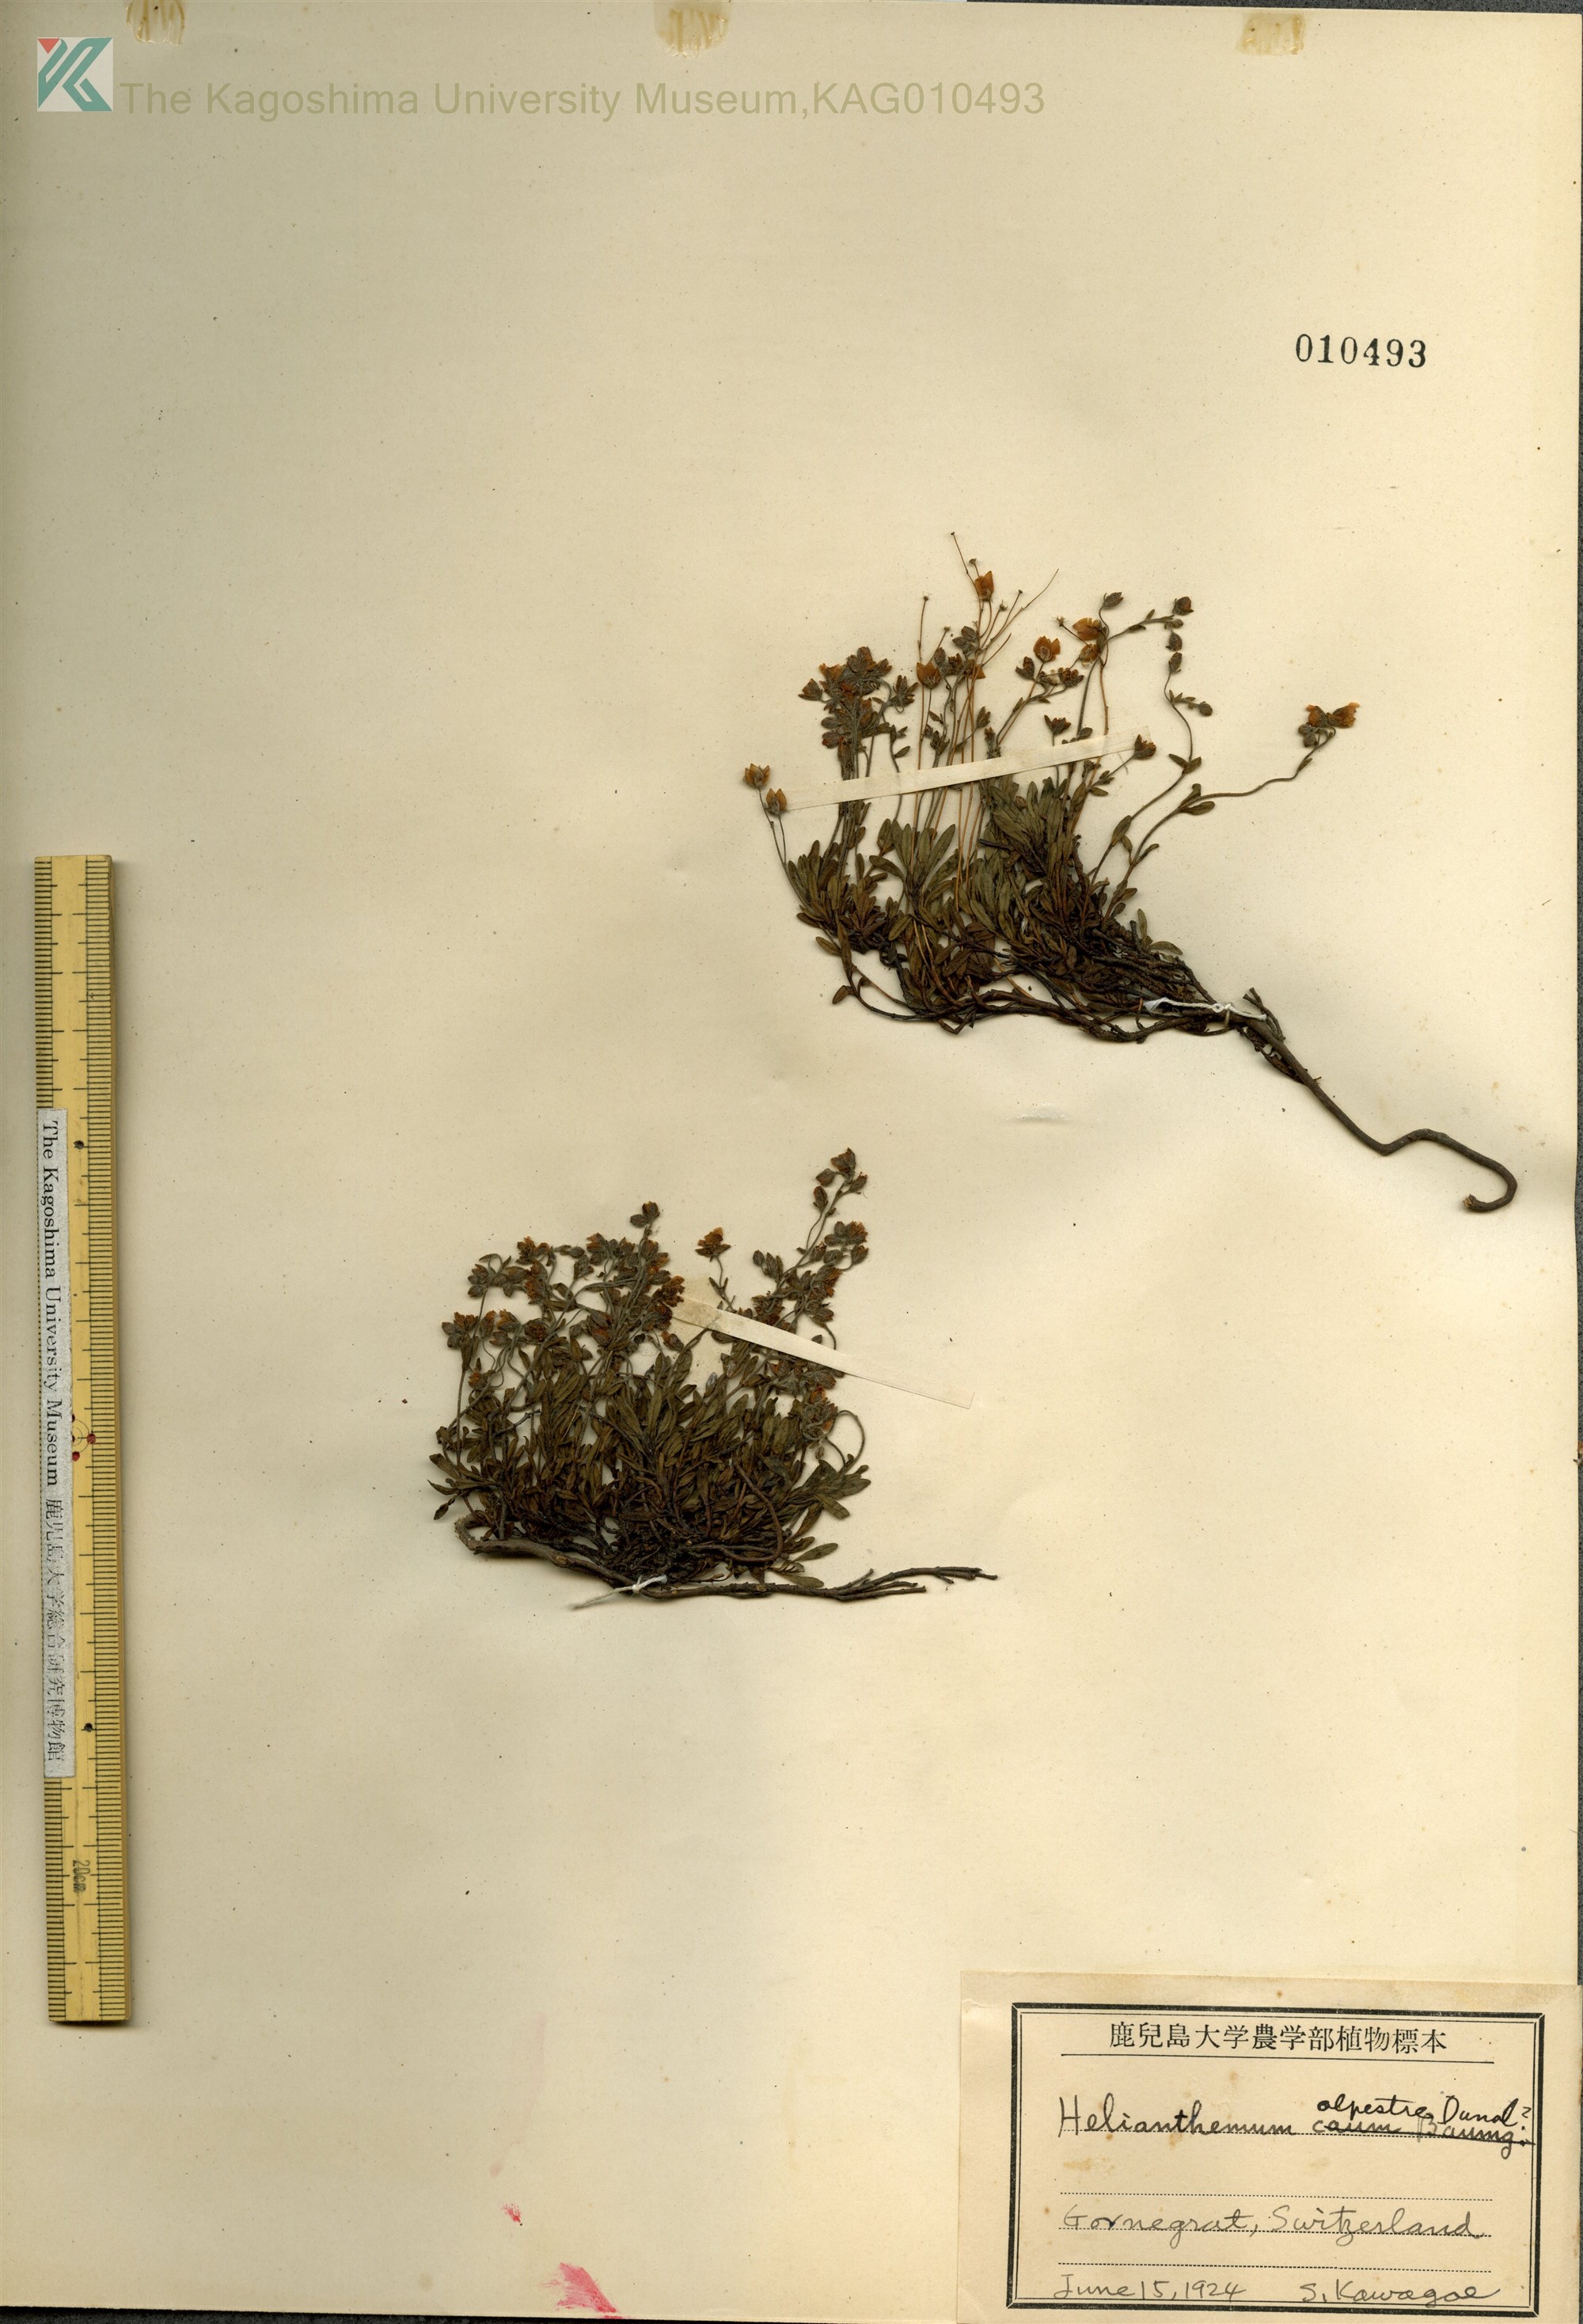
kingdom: Plantae
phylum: Tracheophyta
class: Magnoliopsida
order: Malvales
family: Cistaceae
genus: Helianthemum
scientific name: Helianthemum alpestre
